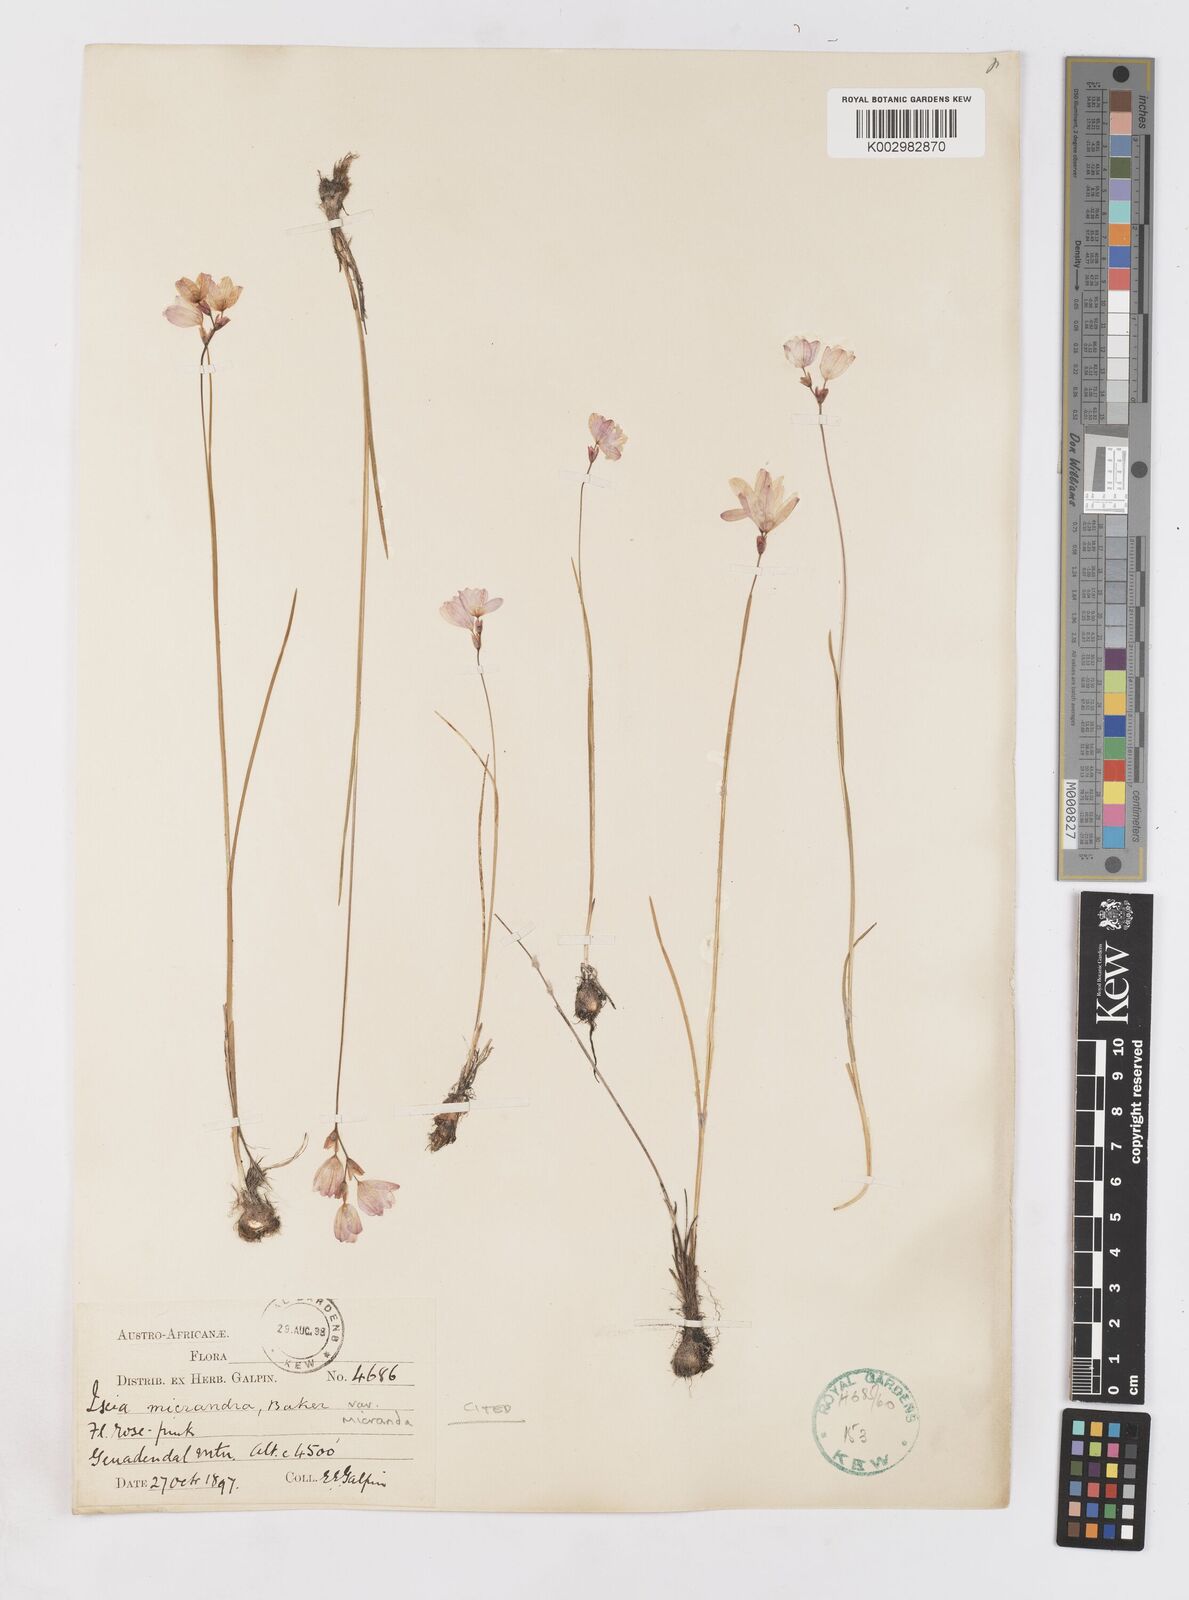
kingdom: Plantae
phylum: Tracheophyta
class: Liliopsida
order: Asparagales
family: Iridaceae
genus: Ixia
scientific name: Ixia micrandra
